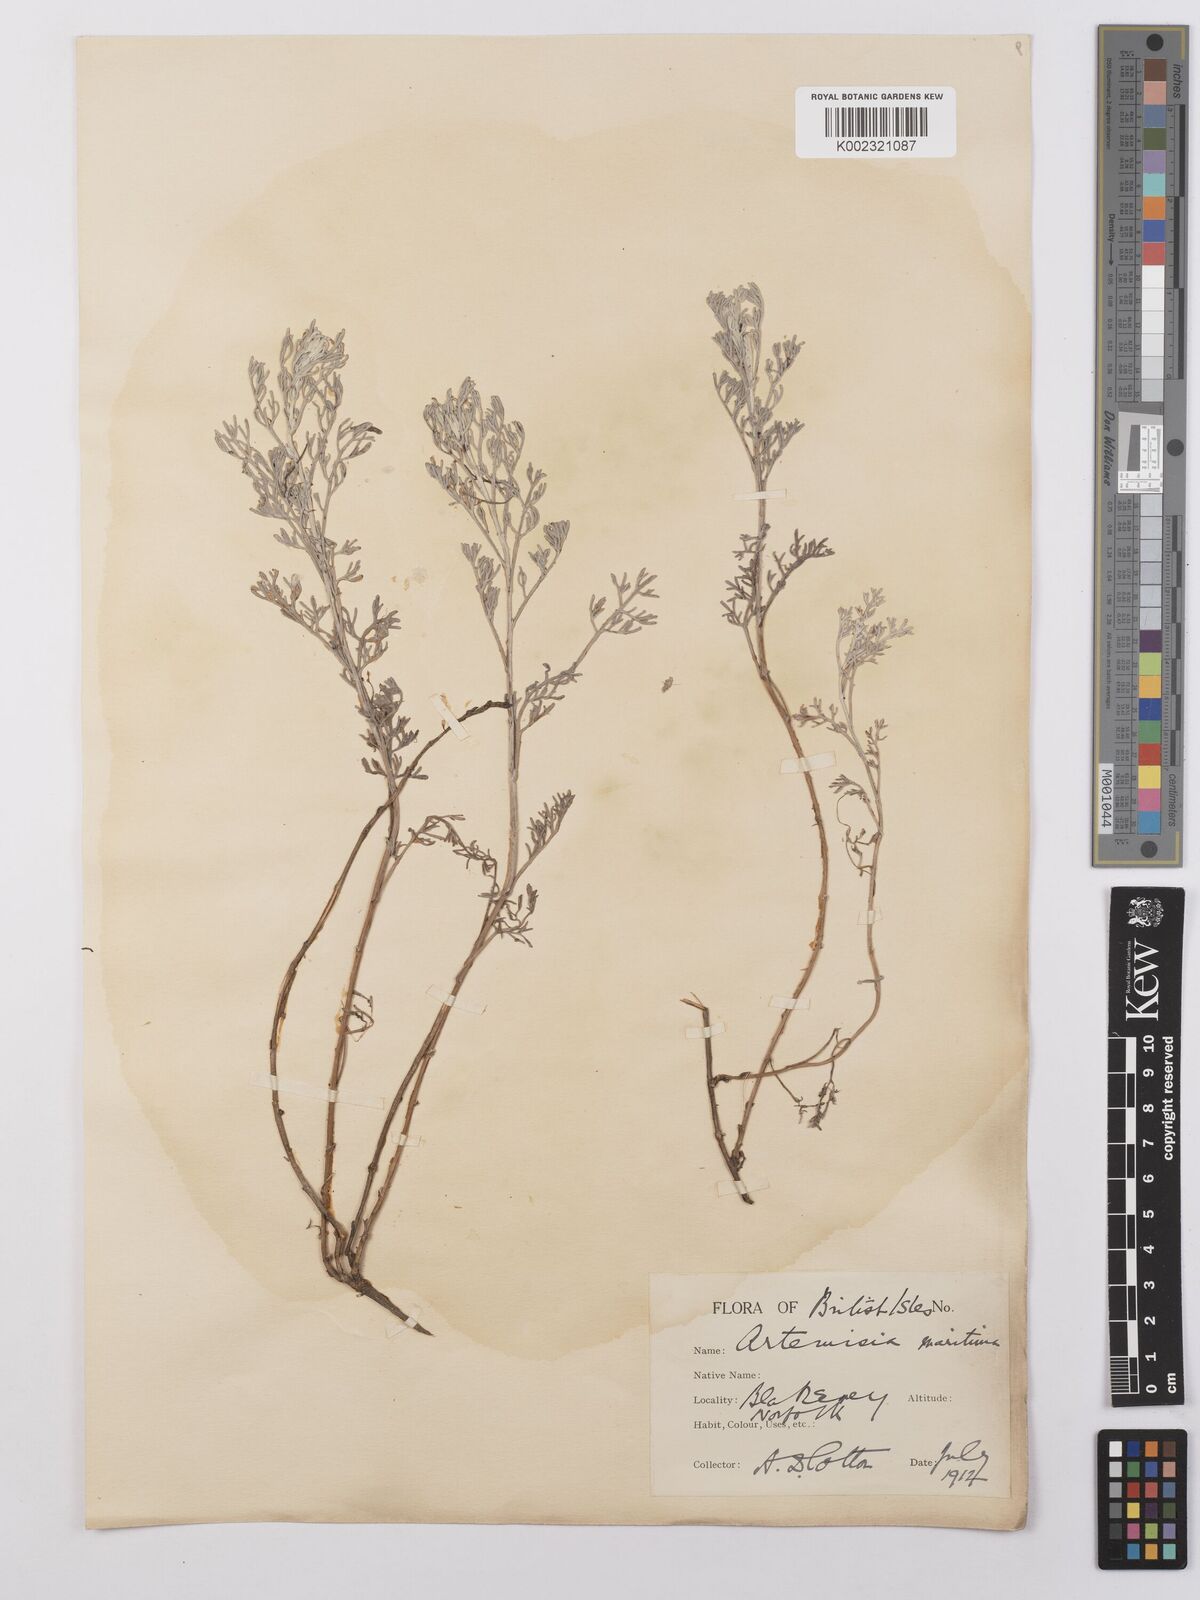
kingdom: Plantae
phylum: Tracheophyta
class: Magnoliopsida
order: Asterales
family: Asteraceae
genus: Artemisia
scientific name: Artemisia maritima
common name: Wormseed
